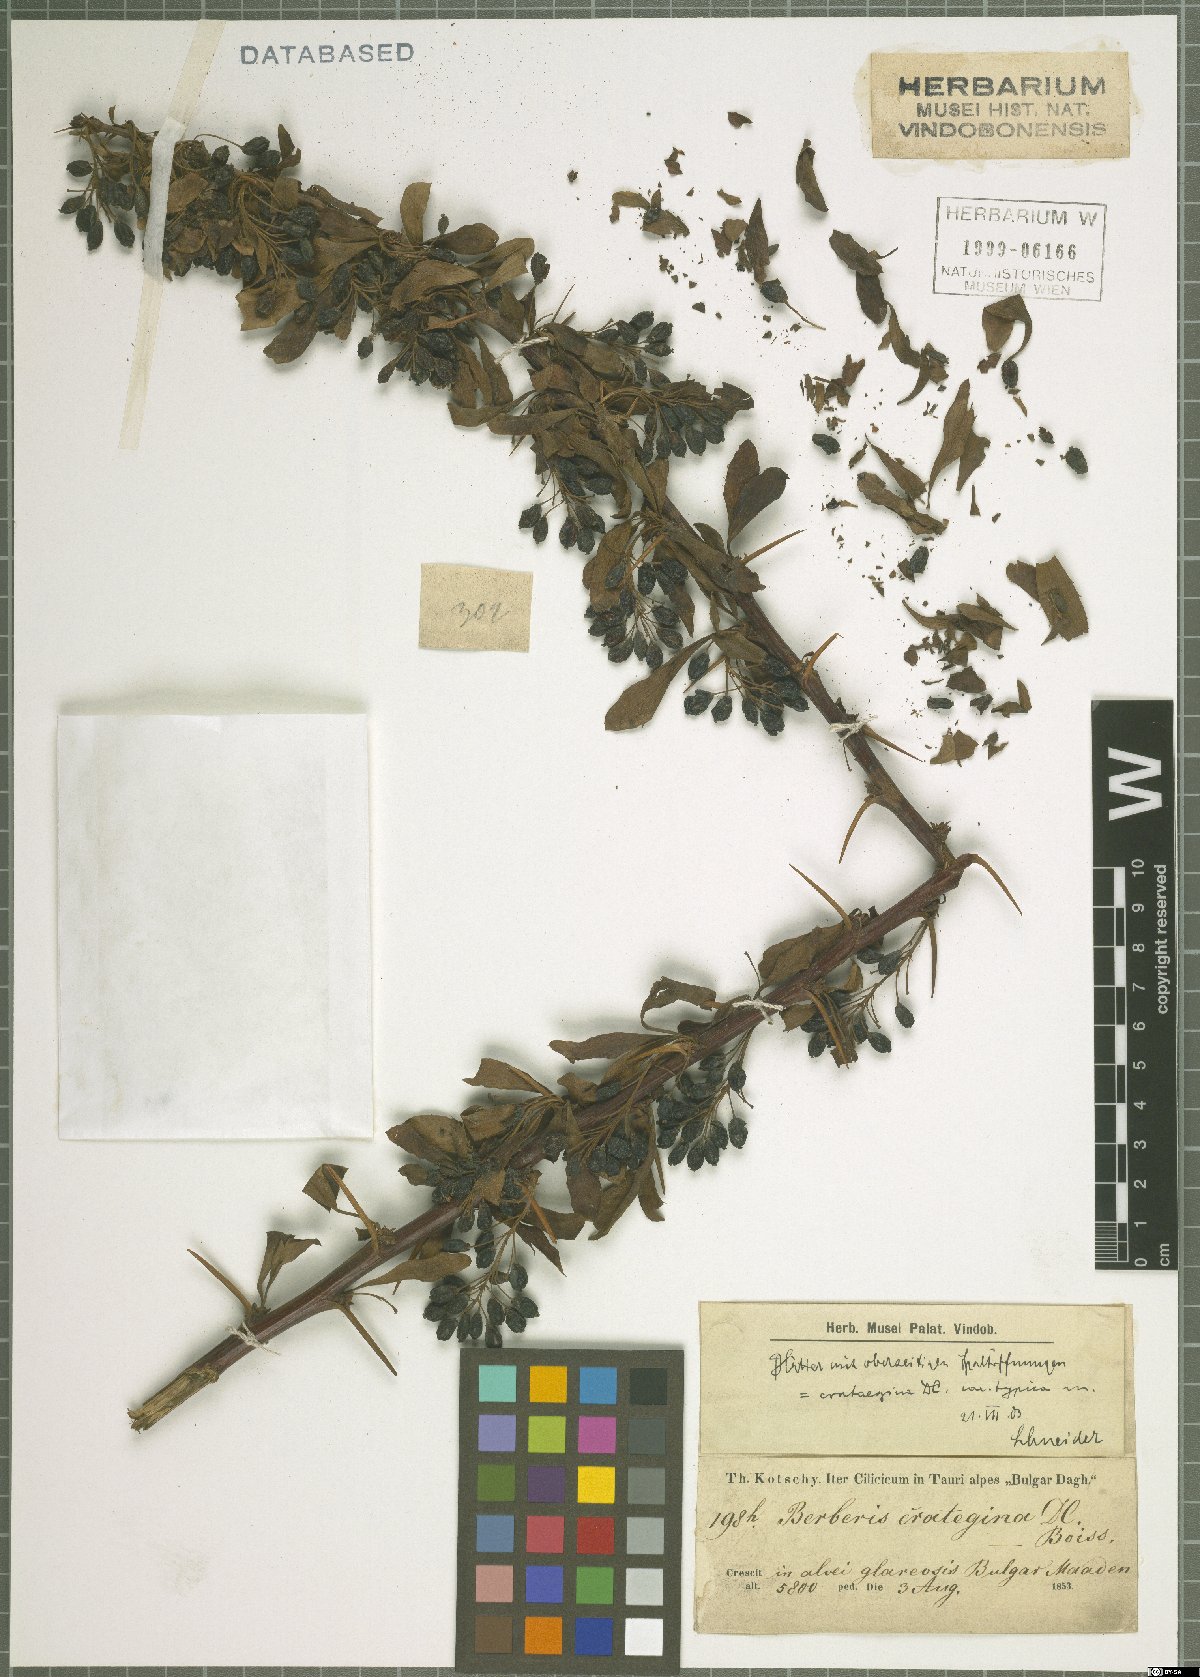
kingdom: Plantae
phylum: Tracheophyta
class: Magnoliopsida
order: Ranunculales
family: Berberidaceae
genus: Berberis
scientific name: Berberis crataegina
